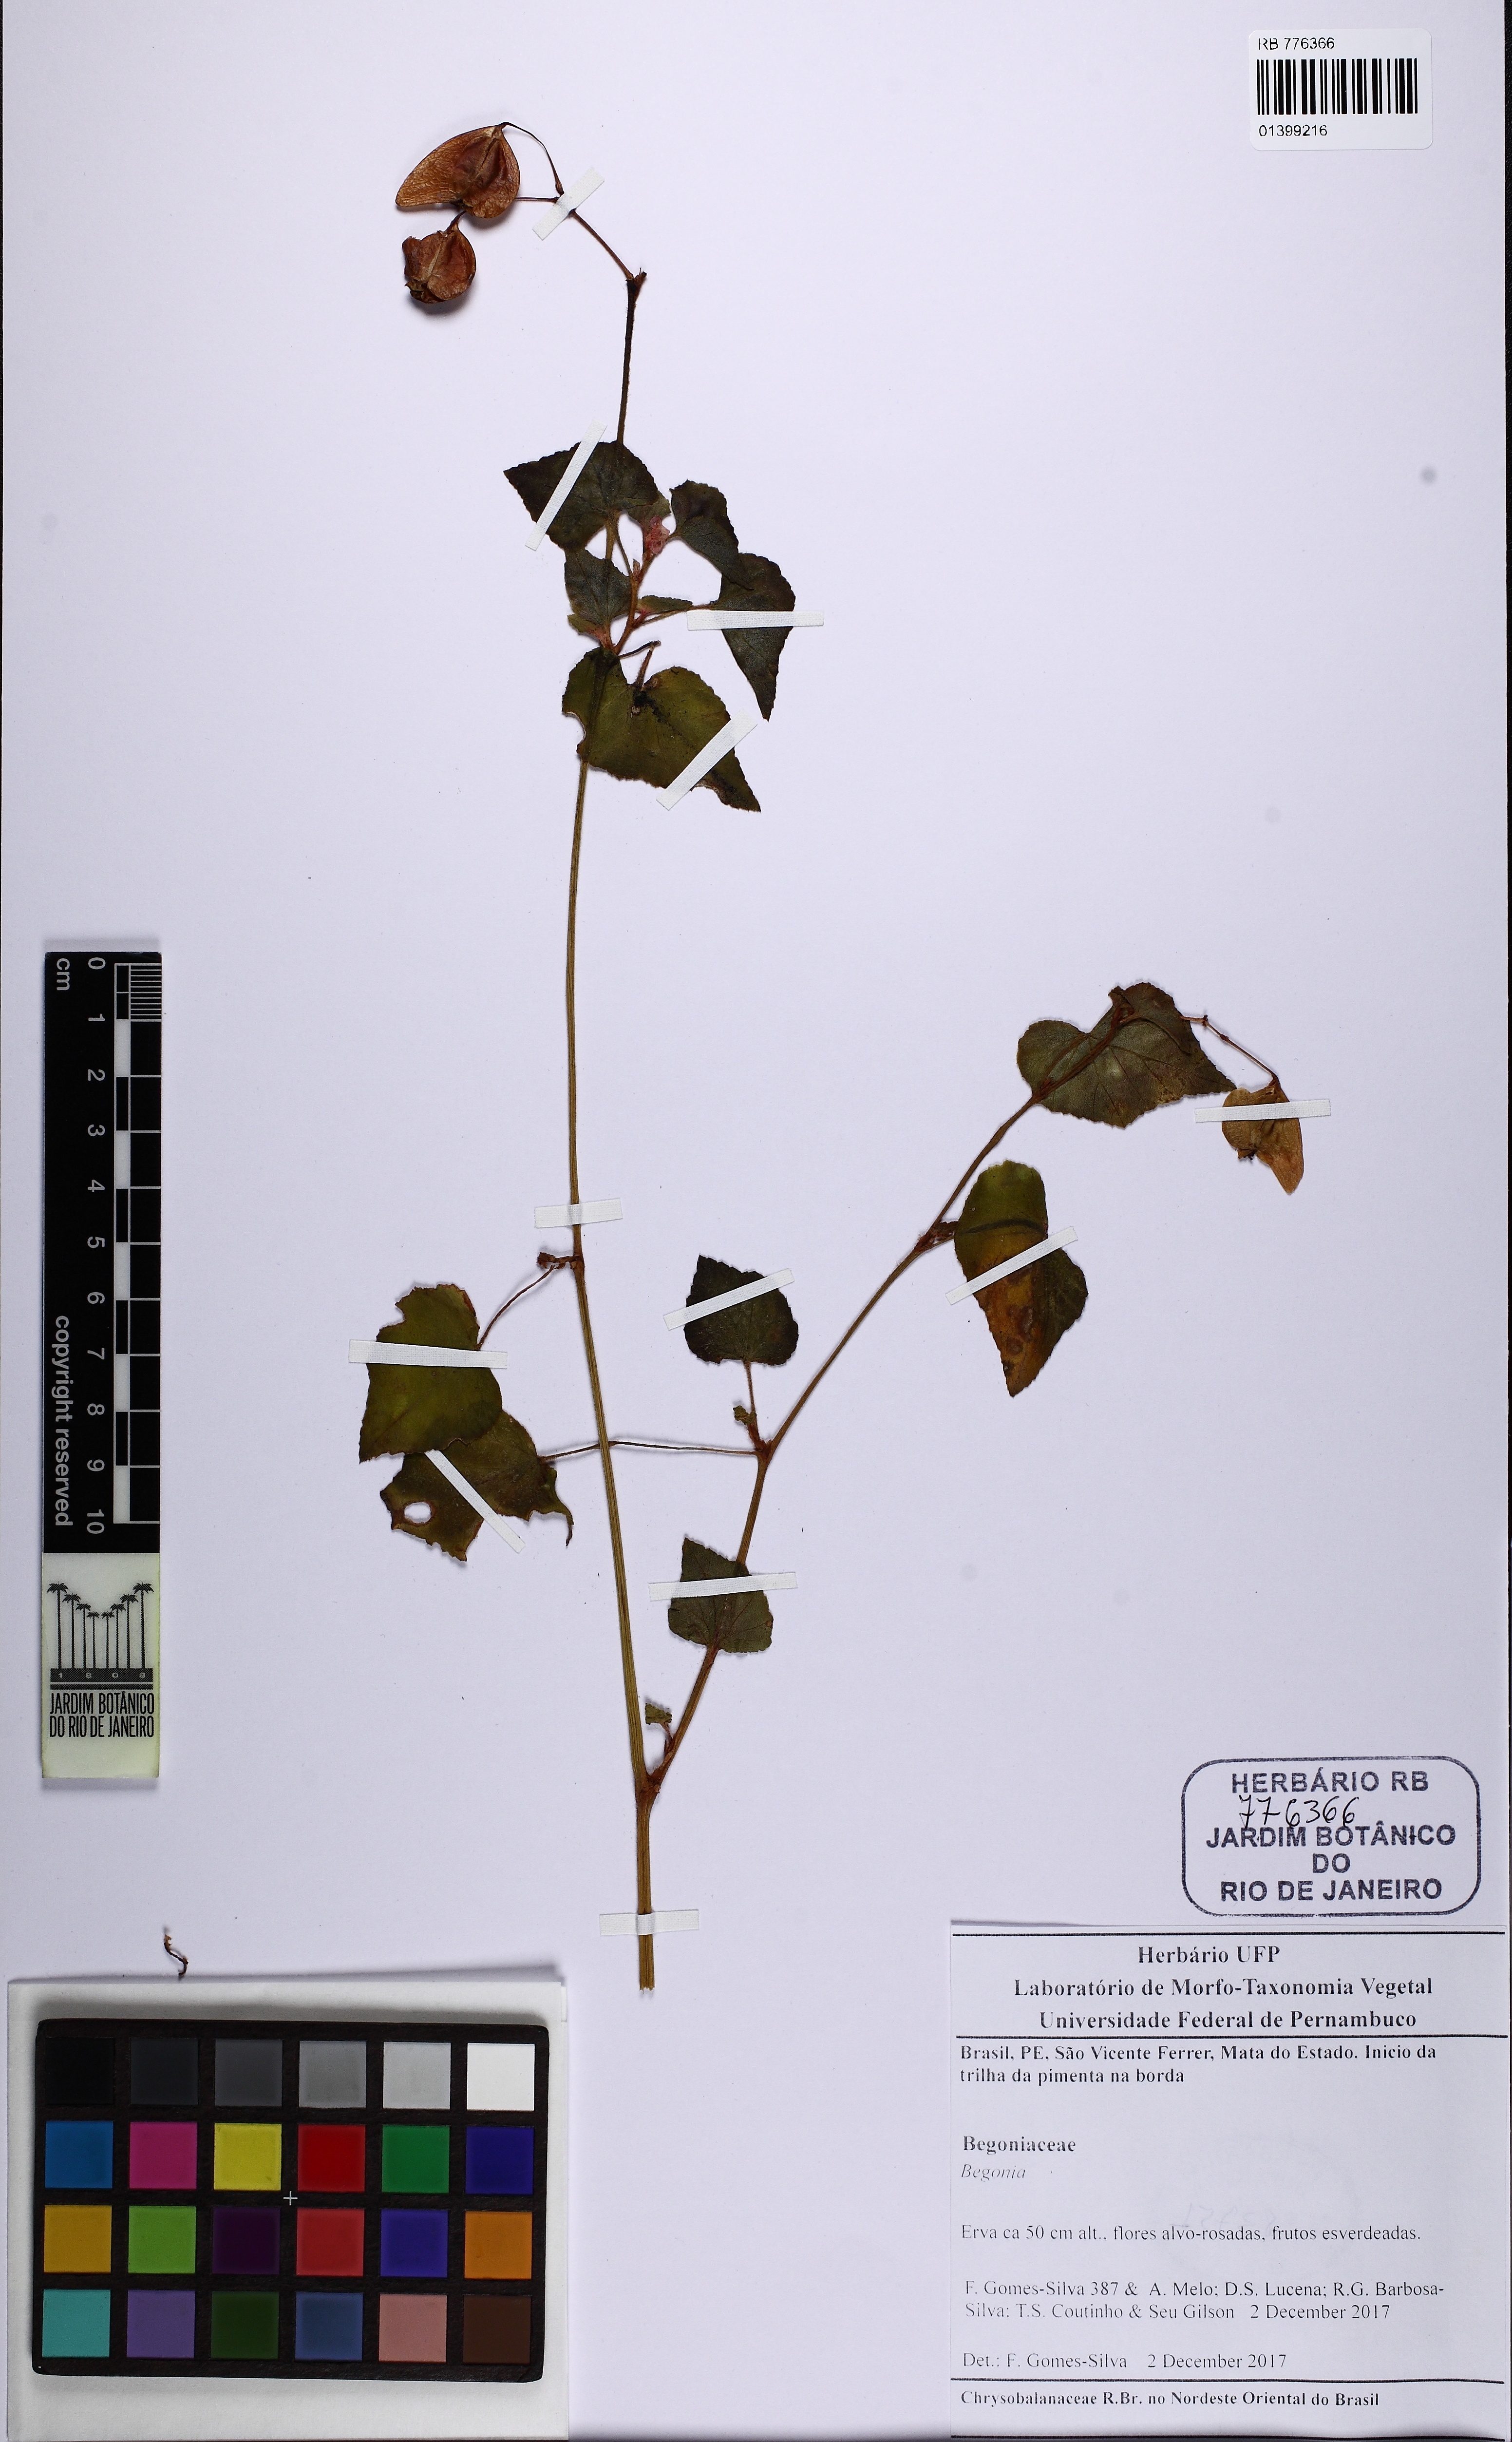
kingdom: Plantae
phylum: Tracheophyta
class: Magnoliopsida
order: Cucurbitales
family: Begoniaceae
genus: Begonia
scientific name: Begonia fischeri
